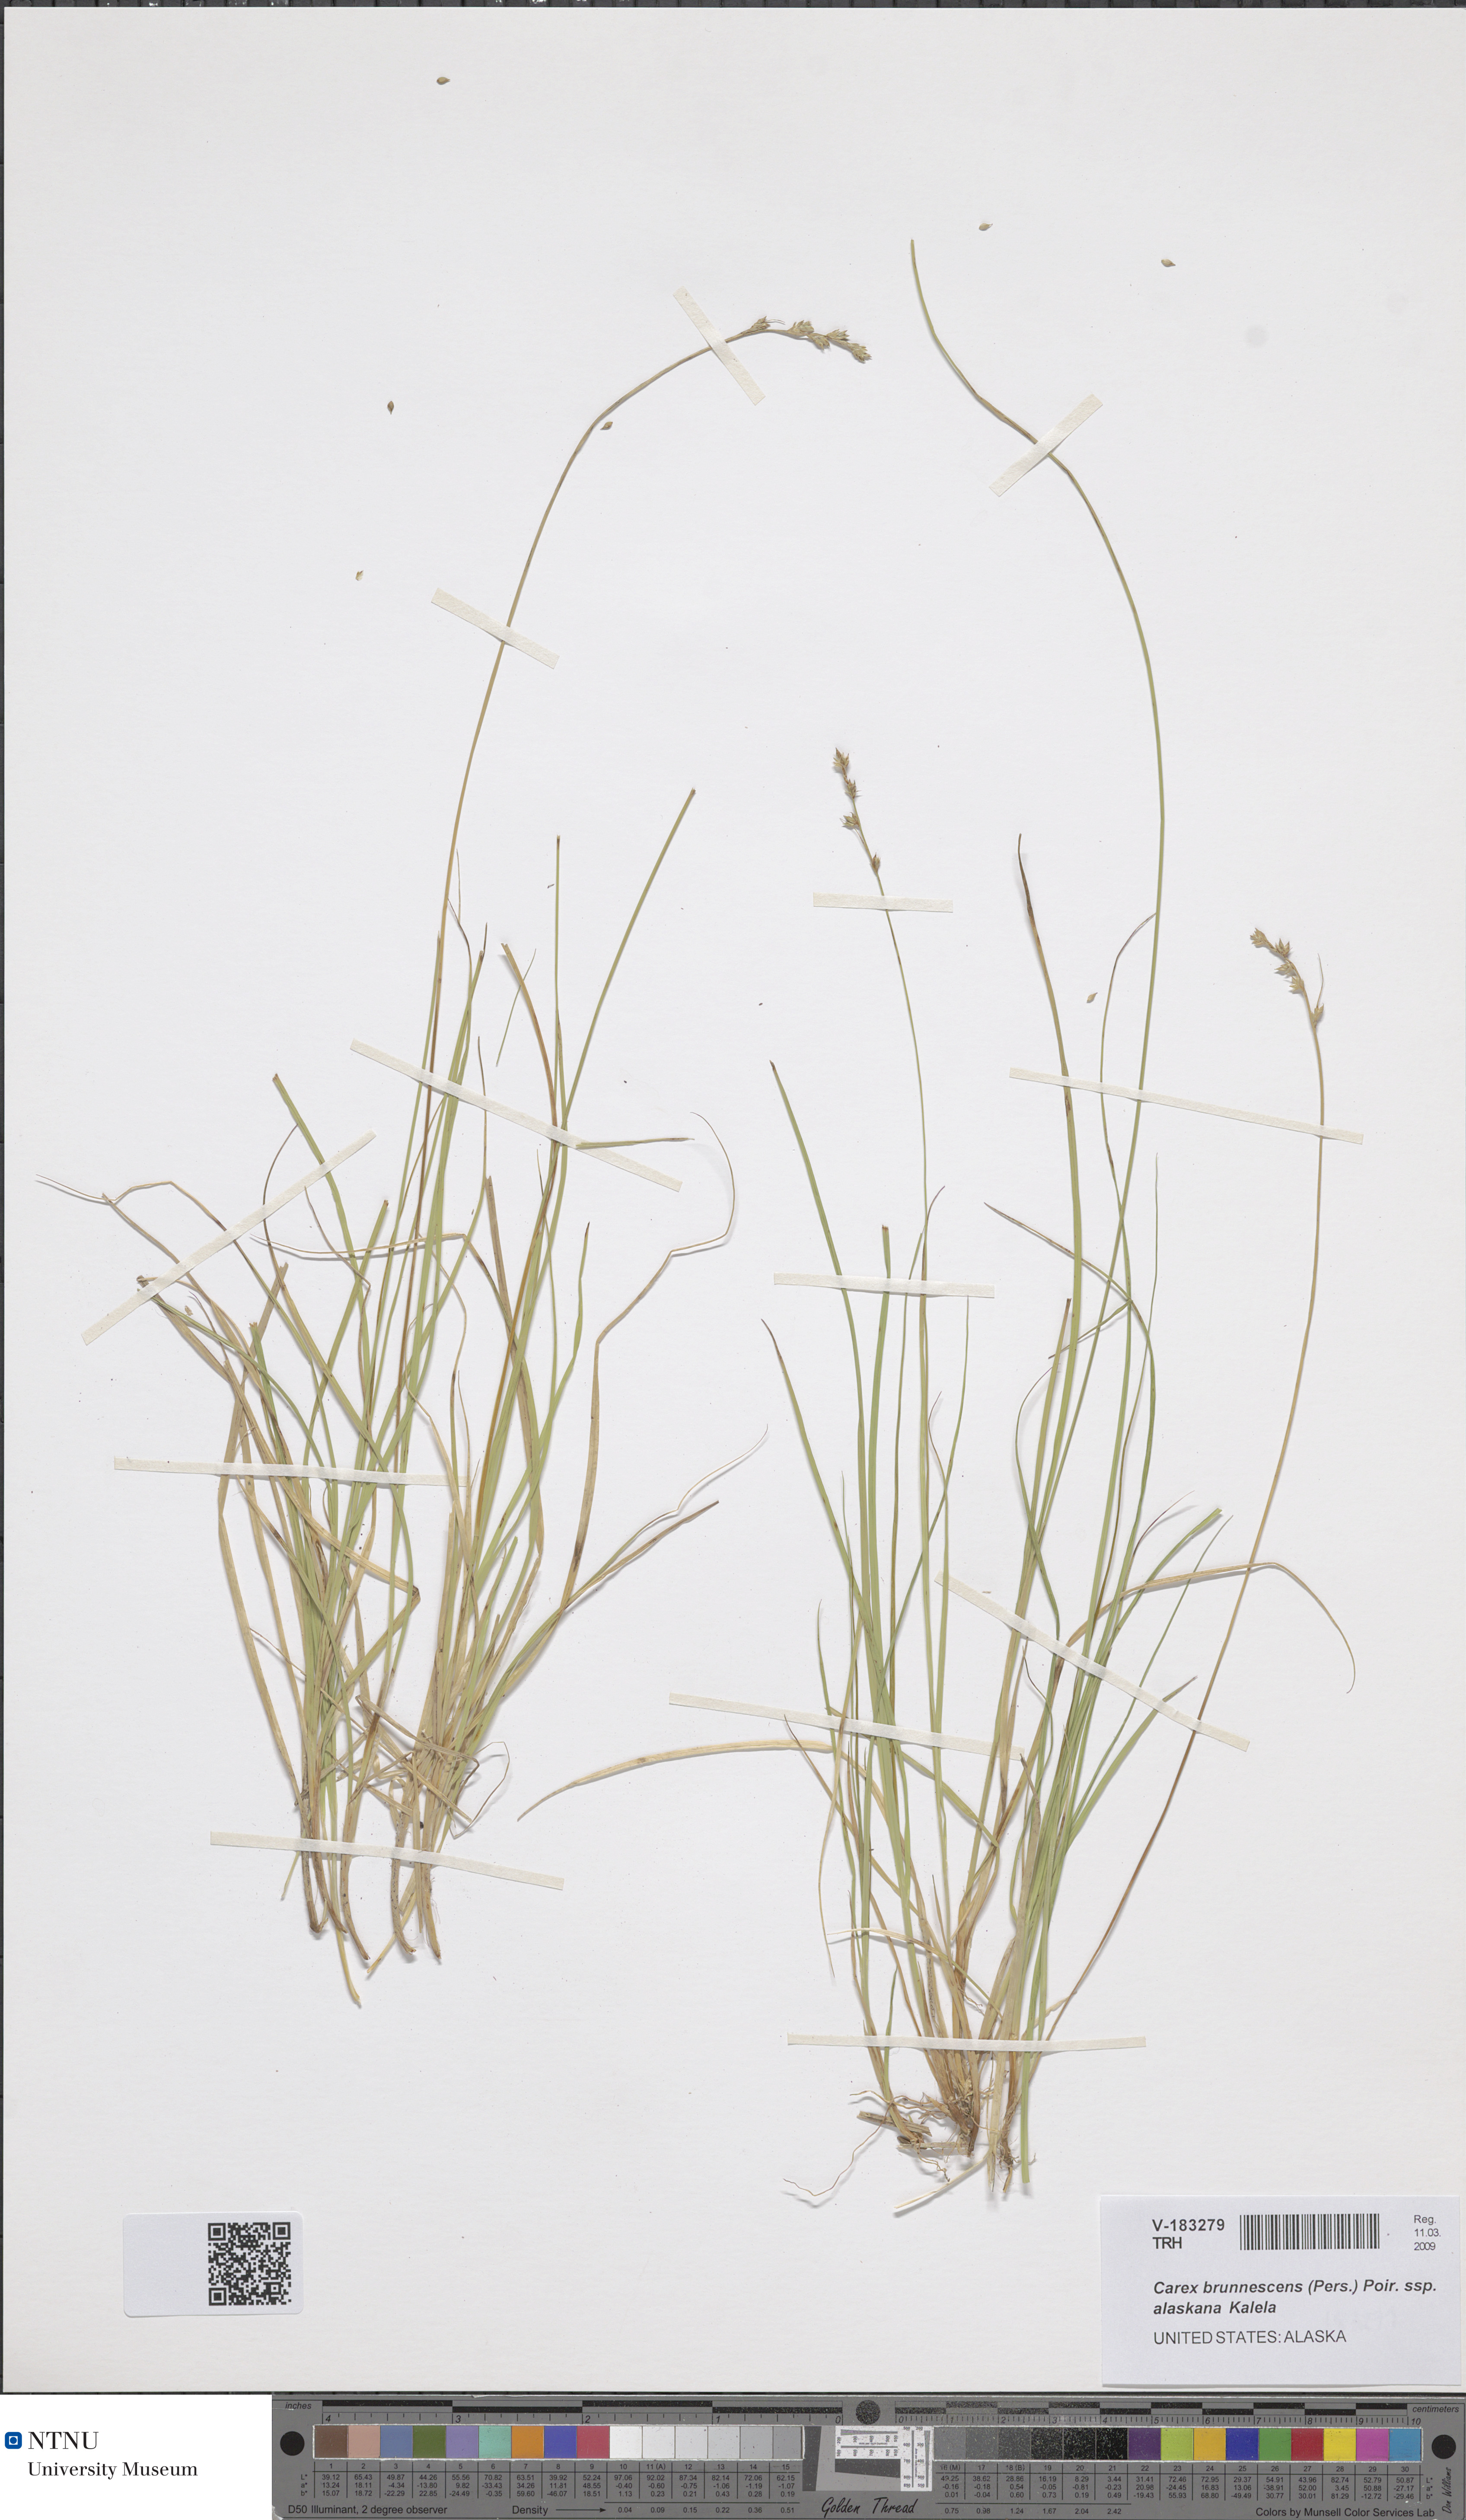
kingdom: Plantae
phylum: Tracheophyta
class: Liliopsida
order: Poales
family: Cyperaceae
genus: Carex
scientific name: Carex brunnescens
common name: Brown sedge
